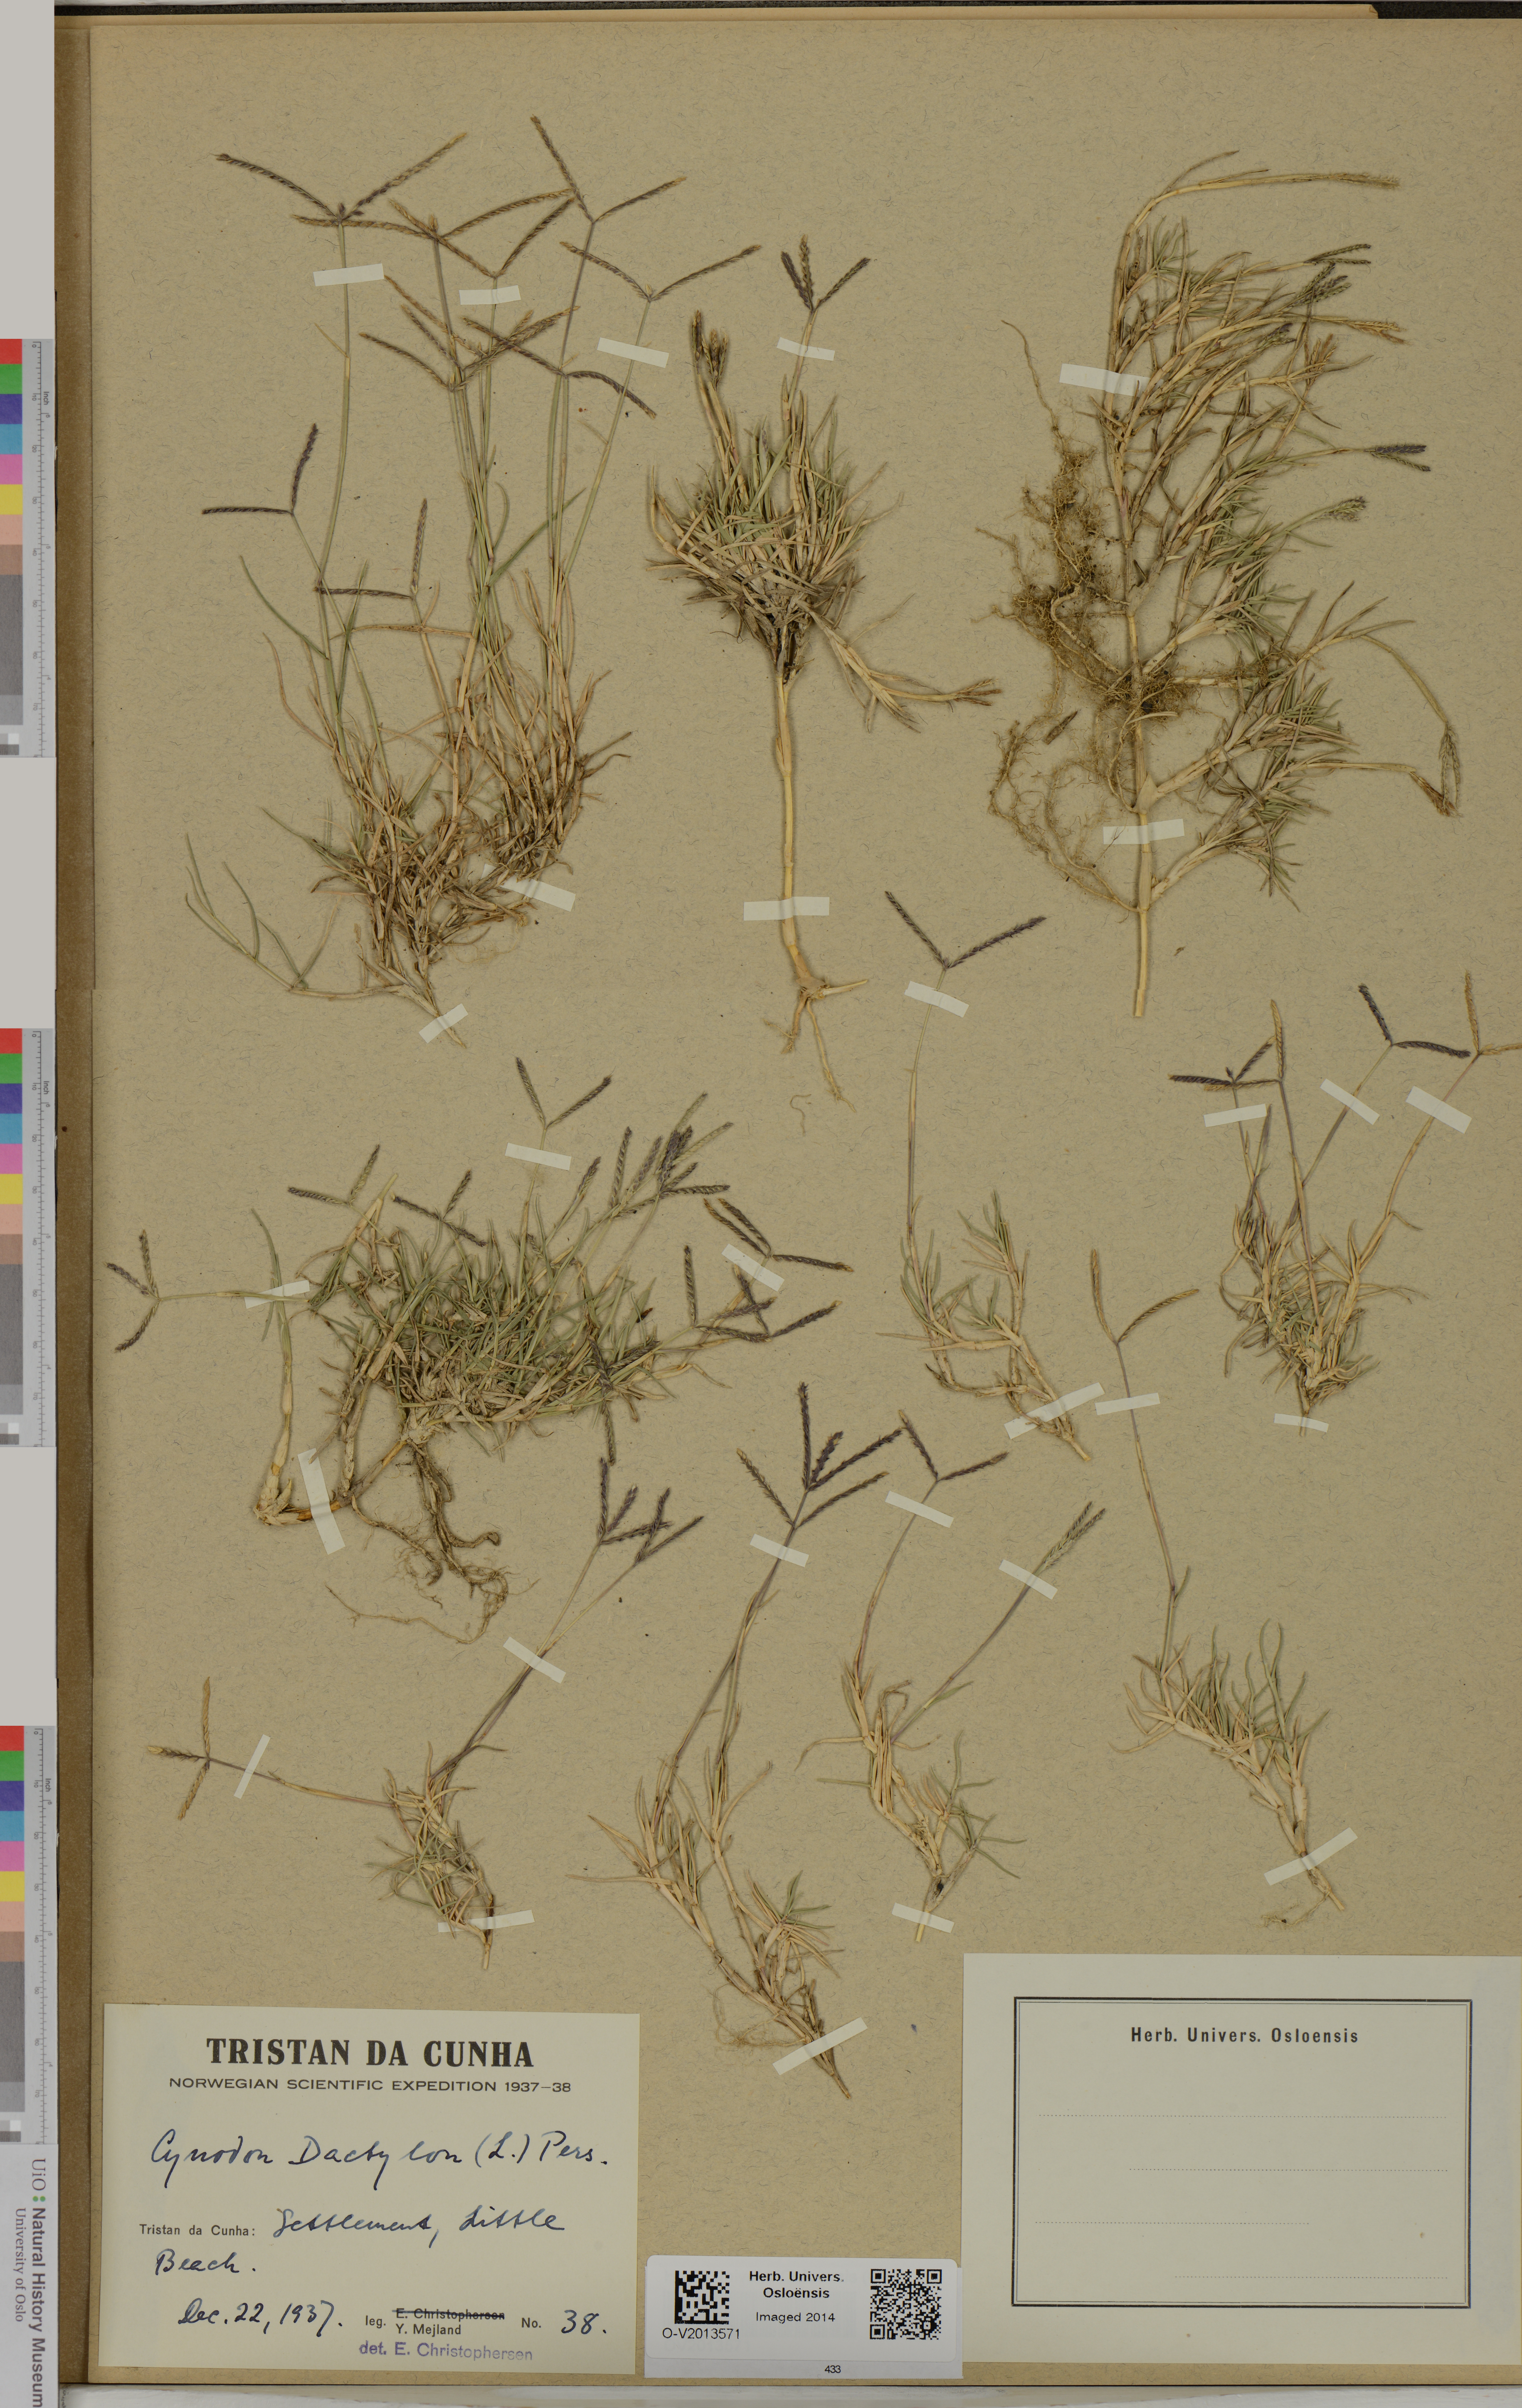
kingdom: Plantae
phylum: Tracheophyta
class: Liliopsida
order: Poales
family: Poaceae
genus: Cynodon
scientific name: Cynodon dactylon
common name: Bermuda grass
